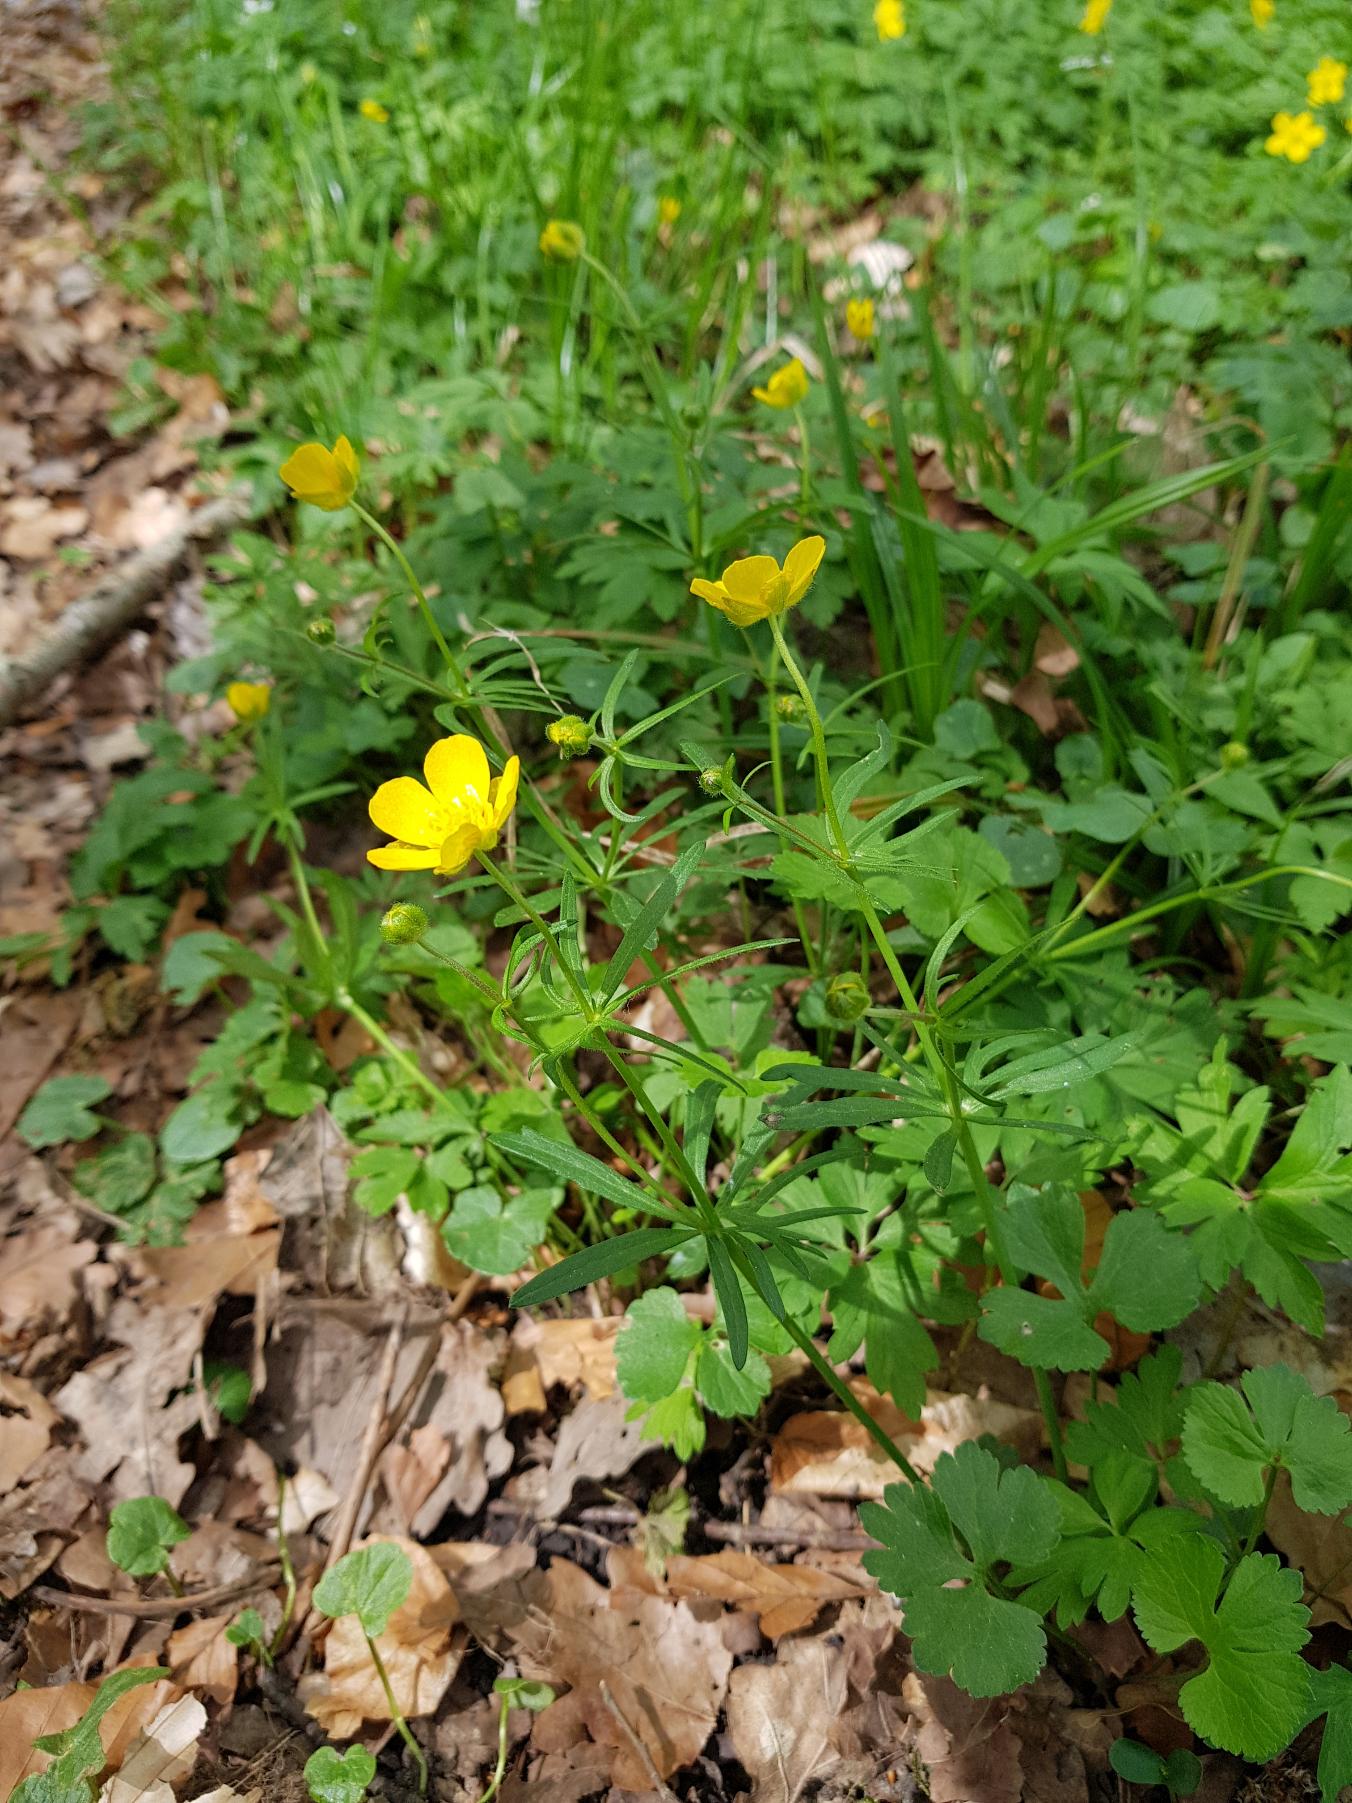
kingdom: Plantae
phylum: Tracheophyta
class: Magnoliopsida
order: Ranunculales
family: Ranunculaceae
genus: Ranunculus
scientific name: Ranunculus auricomus
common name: Nyrebladet ranunkel
